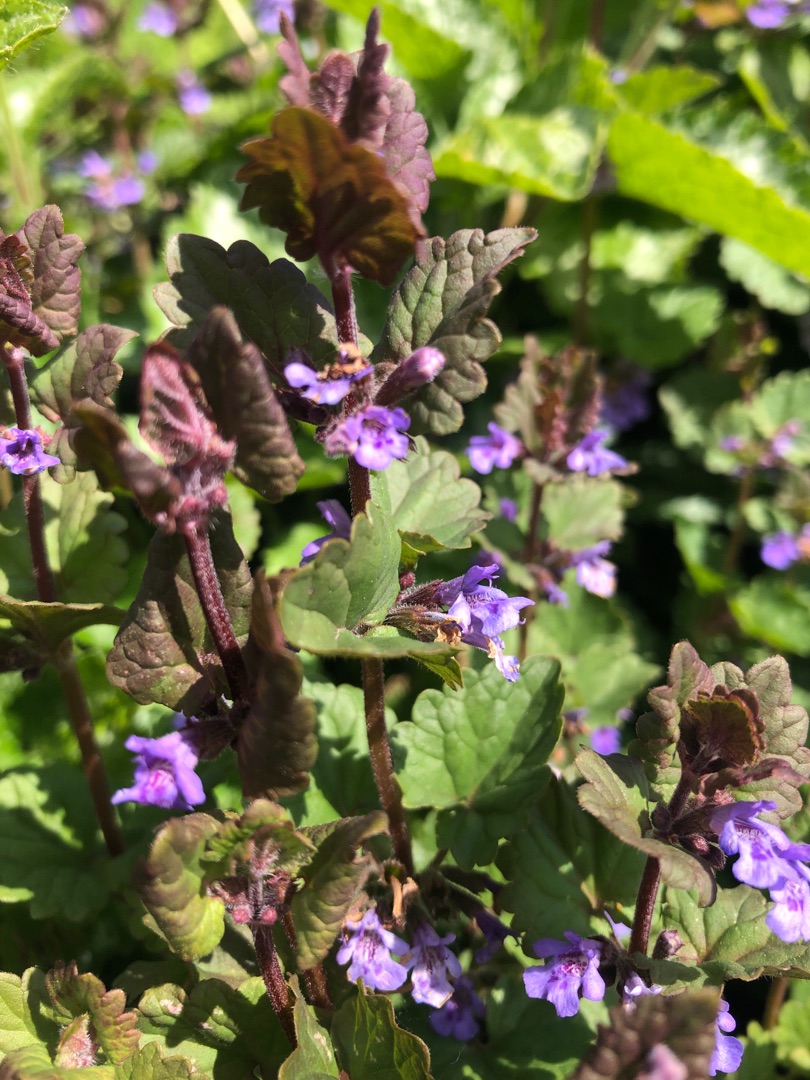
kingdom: Plantae
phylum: Tracheophyta
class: Magnoliopsida
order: Lamiales
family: Lamiaceae
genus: Glechoma
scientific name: Glechoma hederacea
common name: Korsknap
